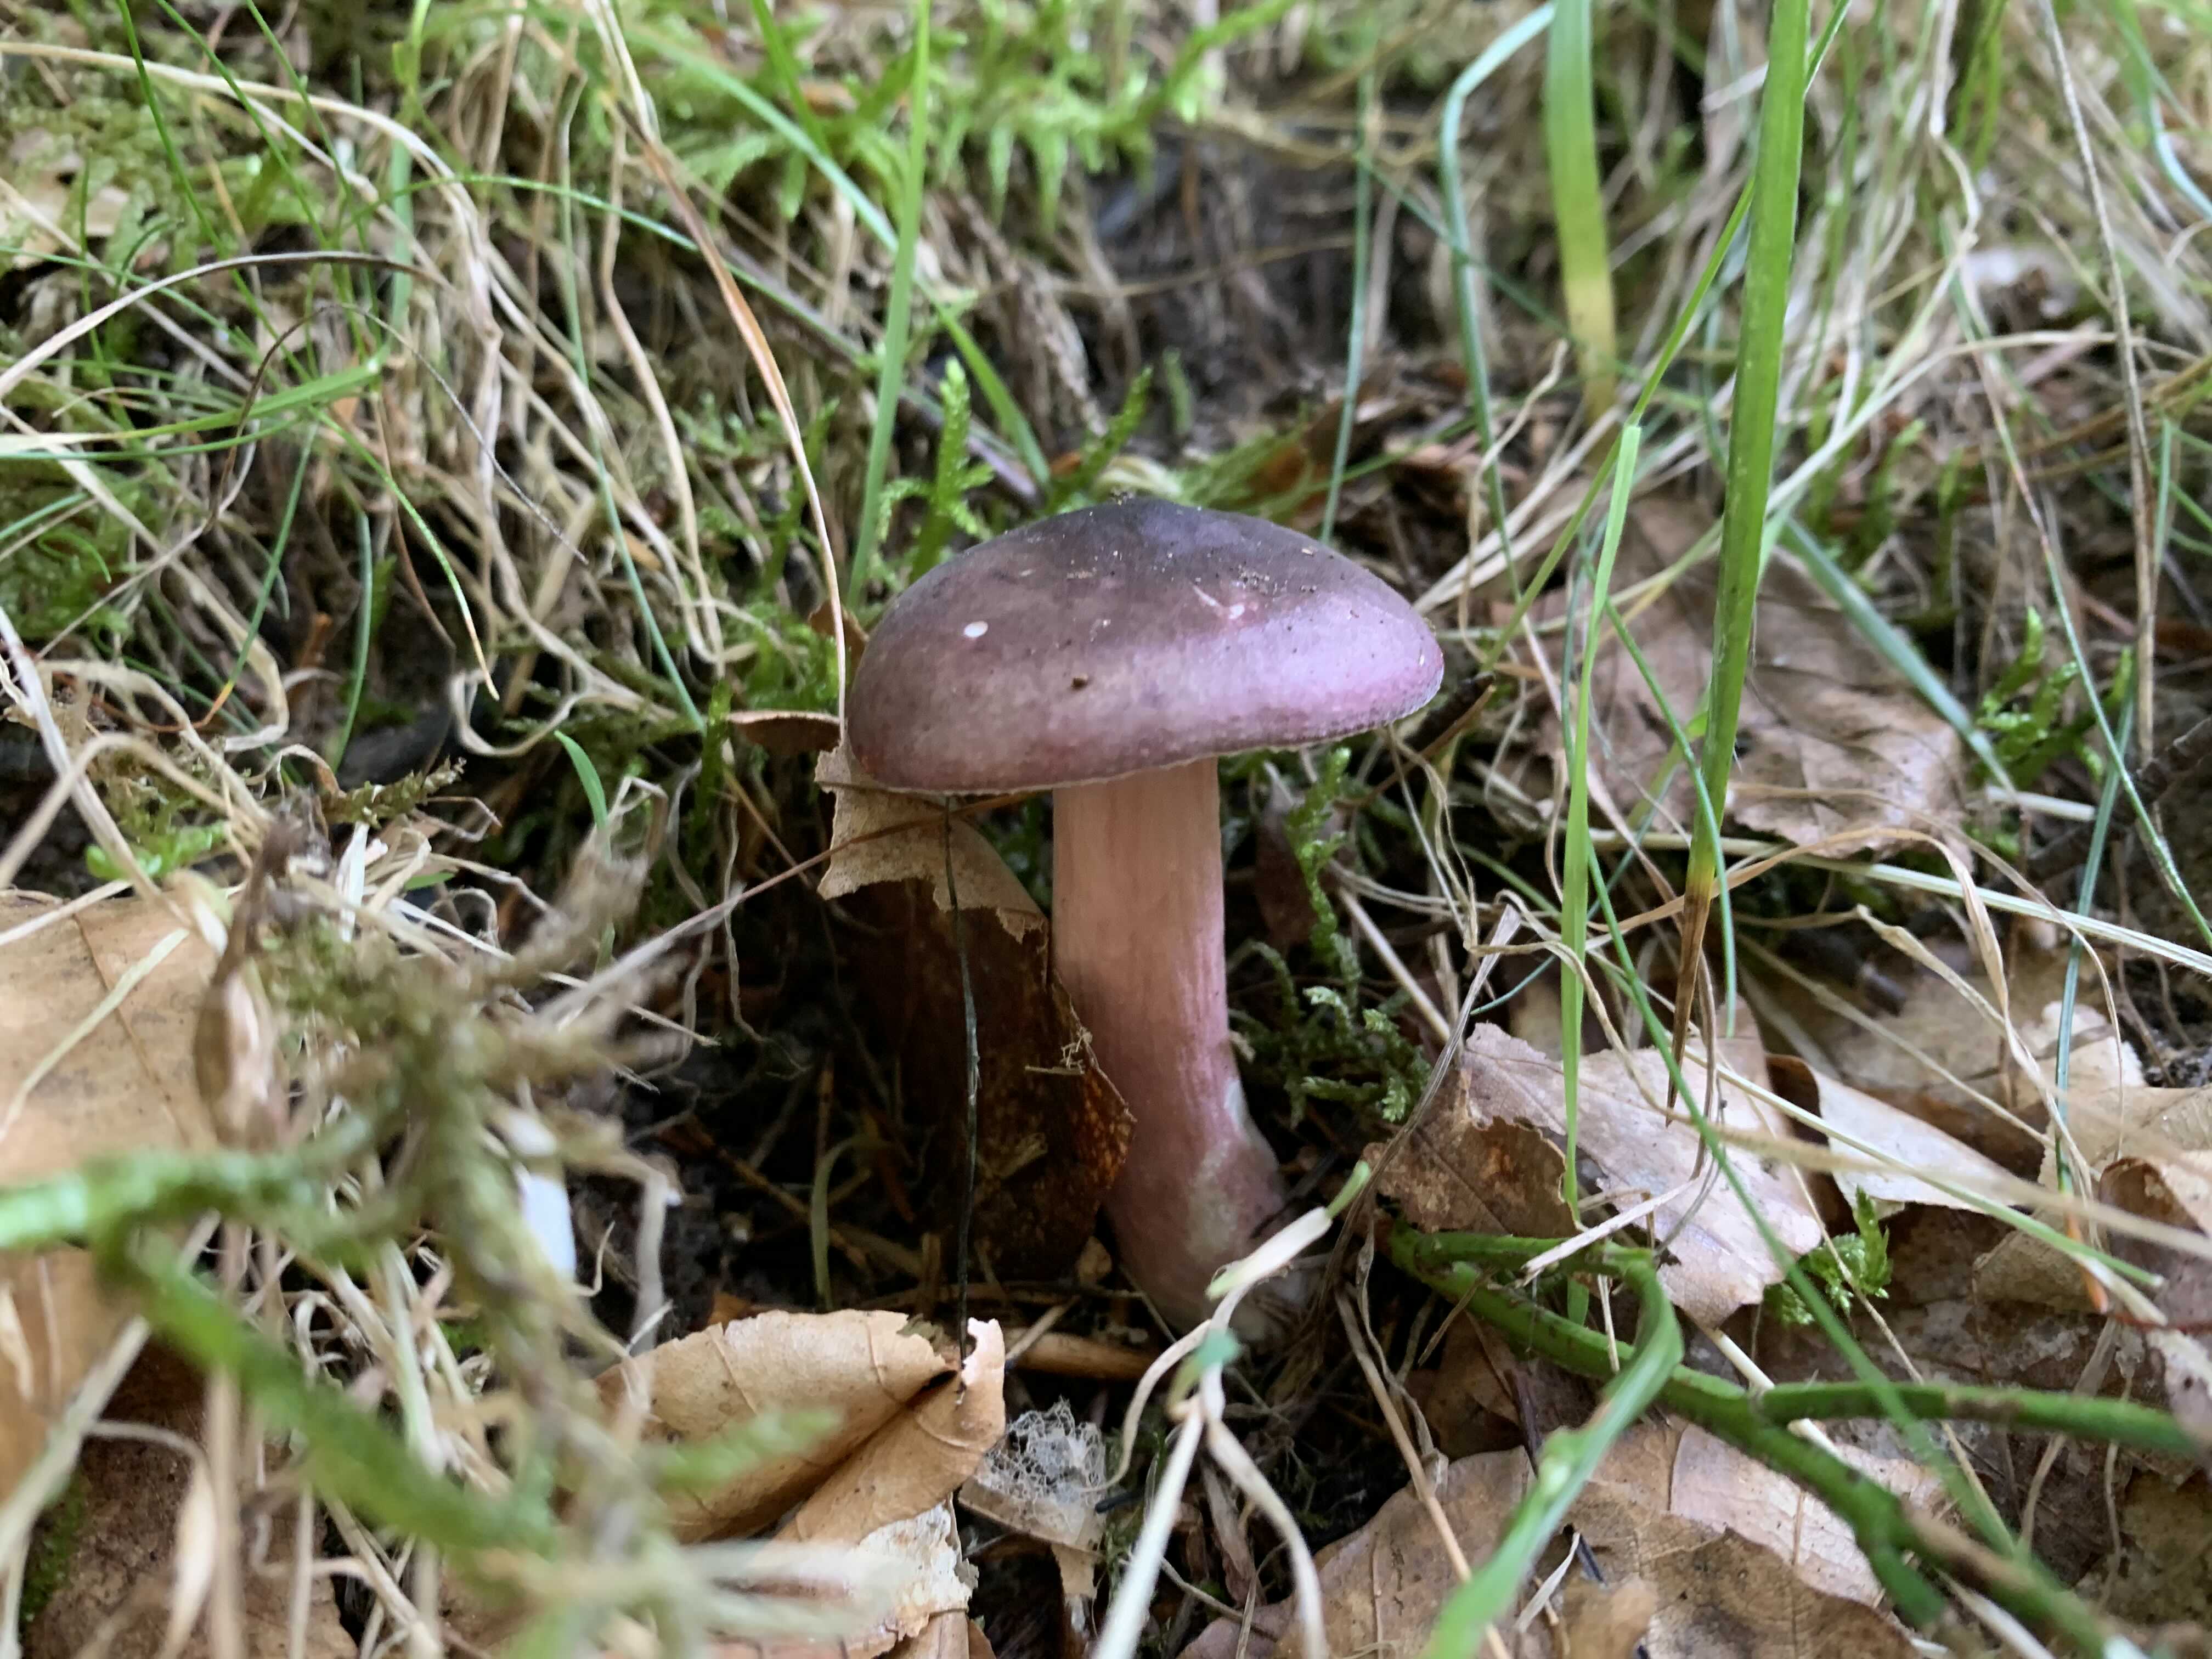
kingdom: Fungi
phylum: Basidiomycota
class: Agaricomycetes
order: Russulales
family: Russulaceae
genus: Russula
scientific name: Russula queletii
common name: Quélets skørhat
